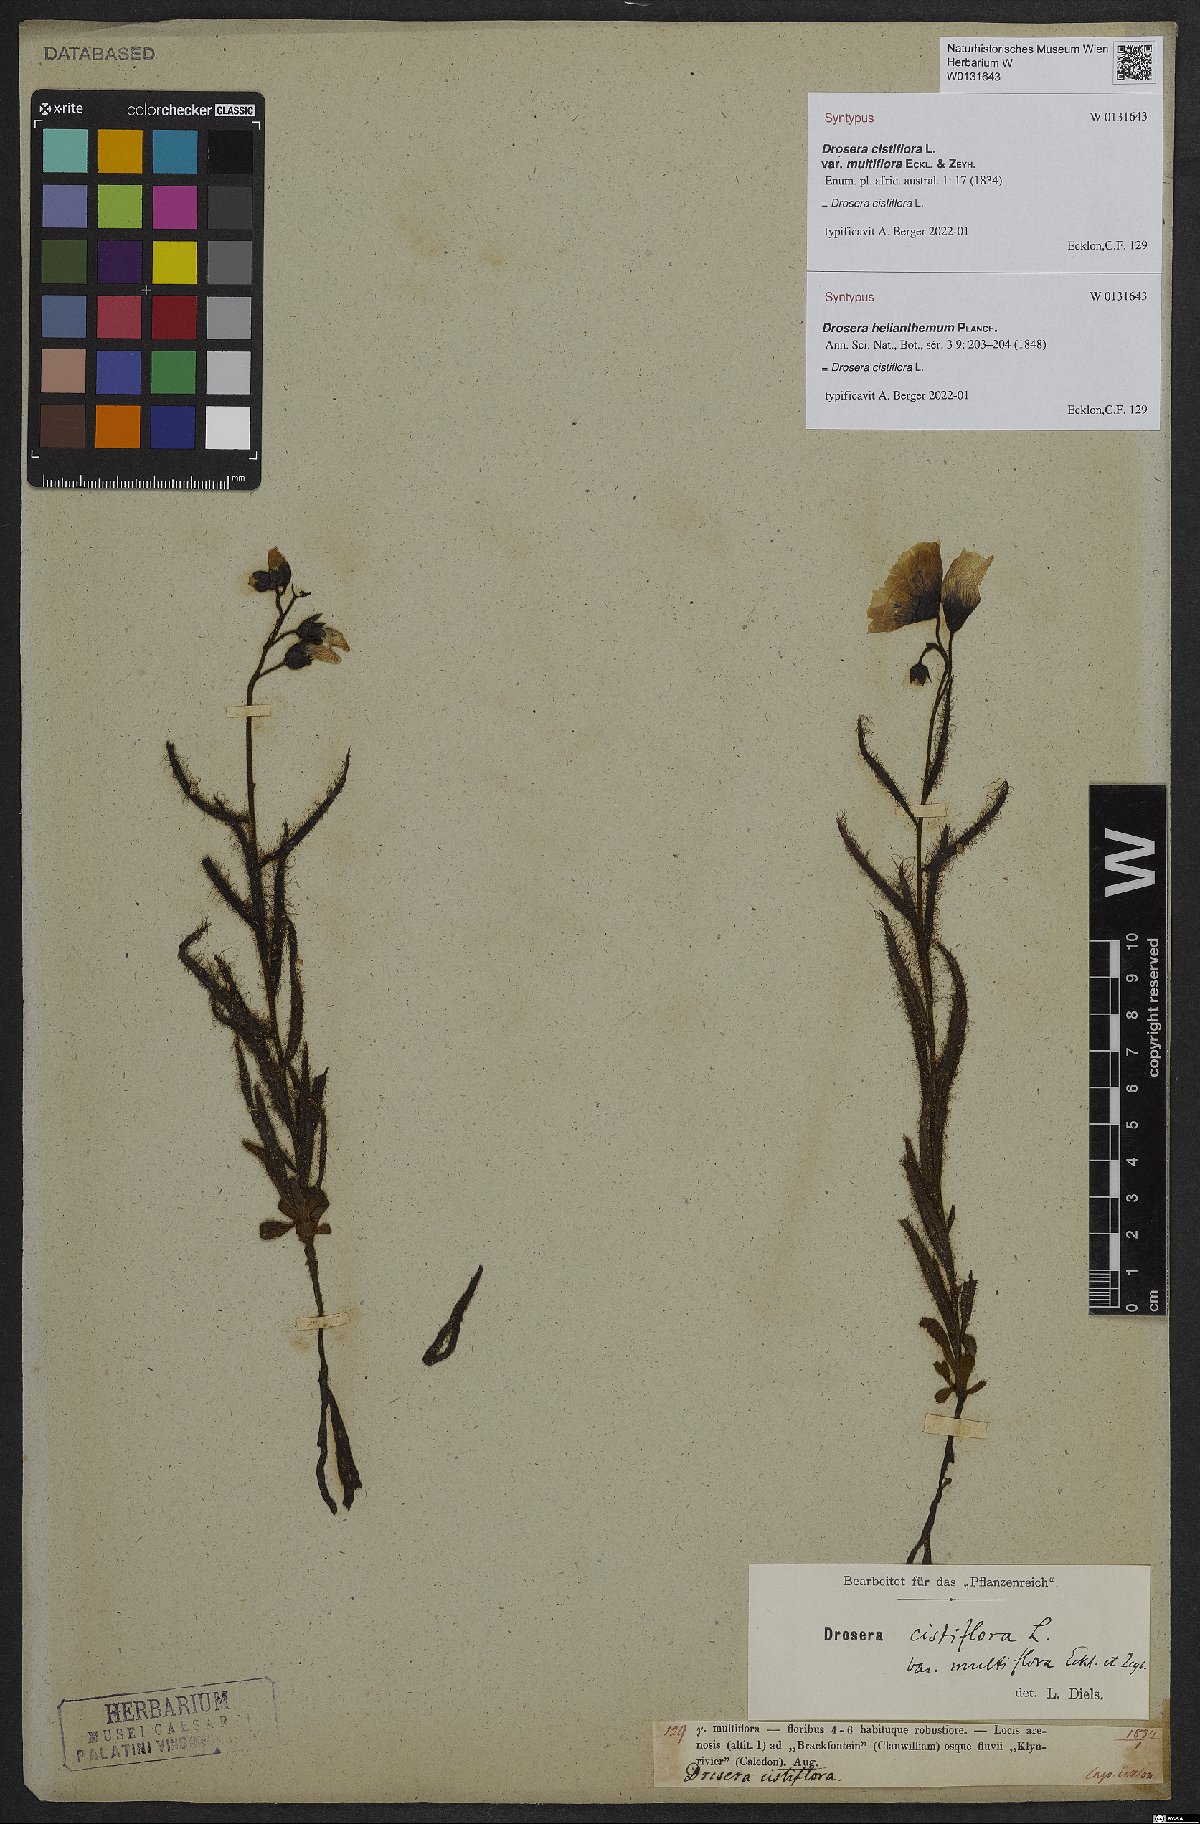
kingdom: Plantae
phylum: Tracheophyta
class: Magnoliopsida
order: Caryophyllales
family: Droseraceae
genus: Drosera
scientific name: Drosera cistiflora
